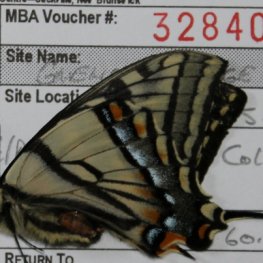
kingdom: Animalia
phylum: Arthropoda
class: Insecta
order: Lepidoptera
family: Papilionidae
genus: Pterourus
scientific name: Pterourus canadensis
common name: Canadian Tiger Swallowtail
